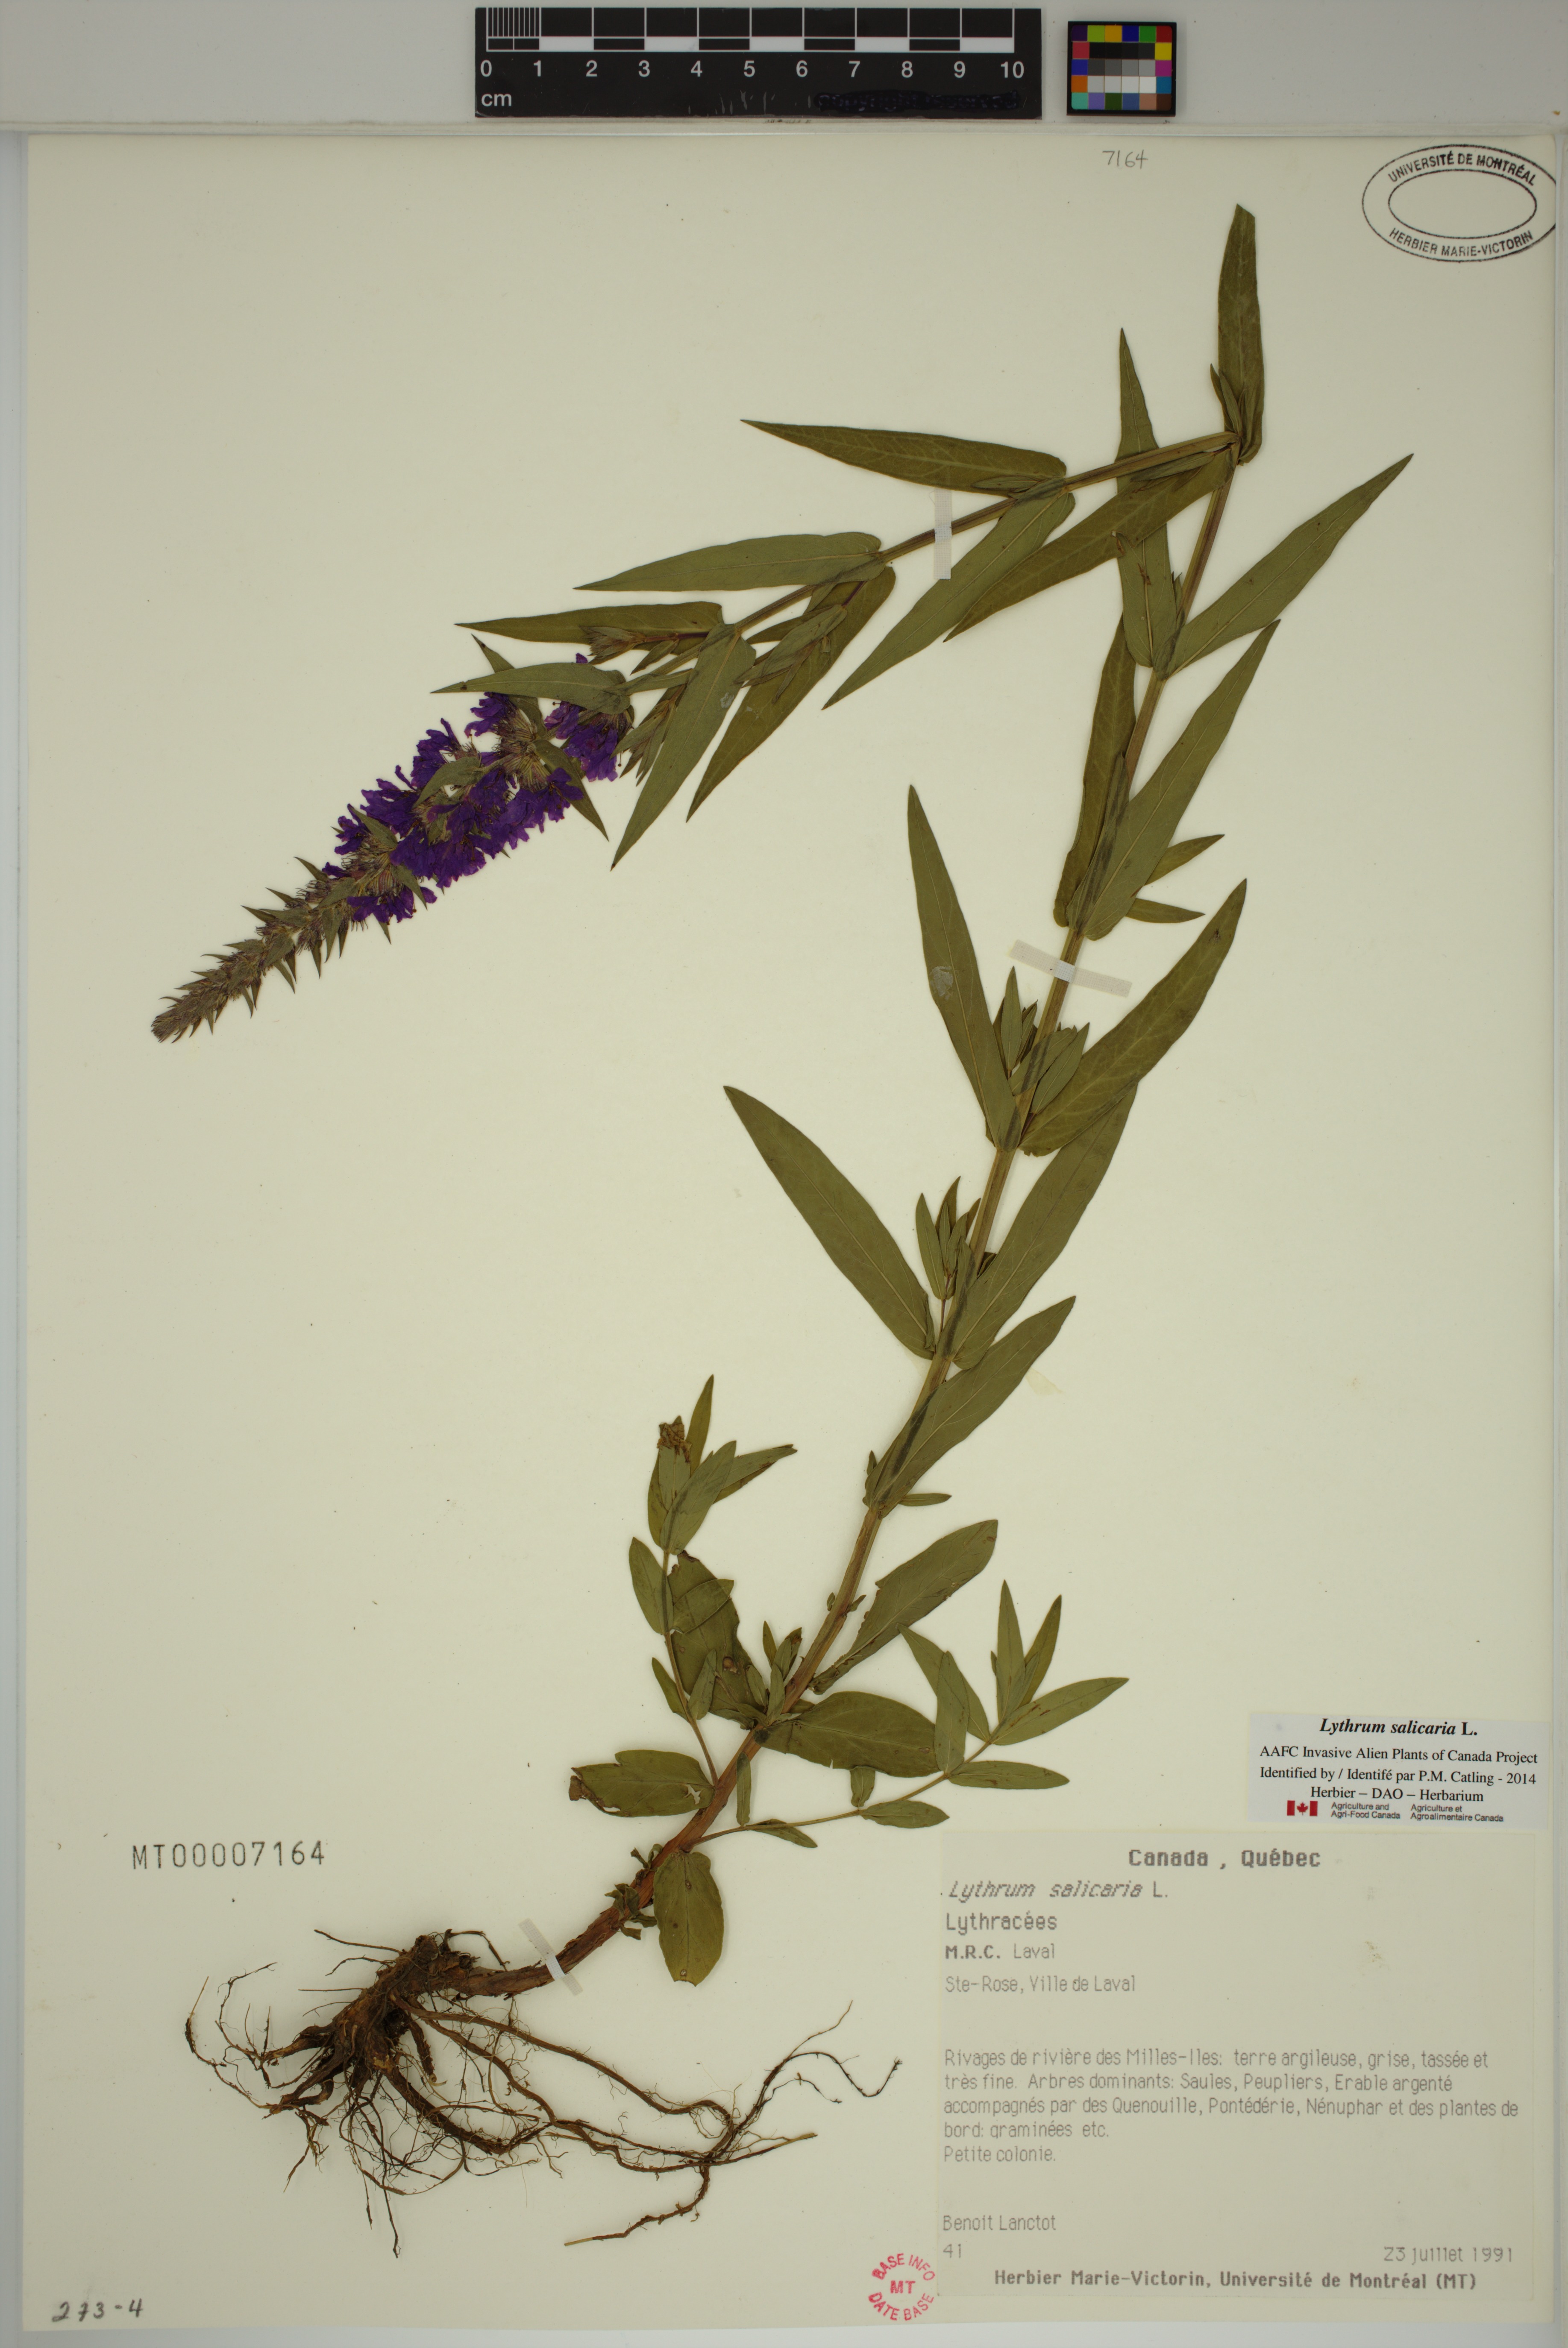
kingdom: Plantae
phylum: Tracheophyta
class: Magnoliopsida
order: Myrtales
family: Lythraceae
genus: Lythrum
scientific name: Lythrum salicaria
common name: Purple loosestrife
